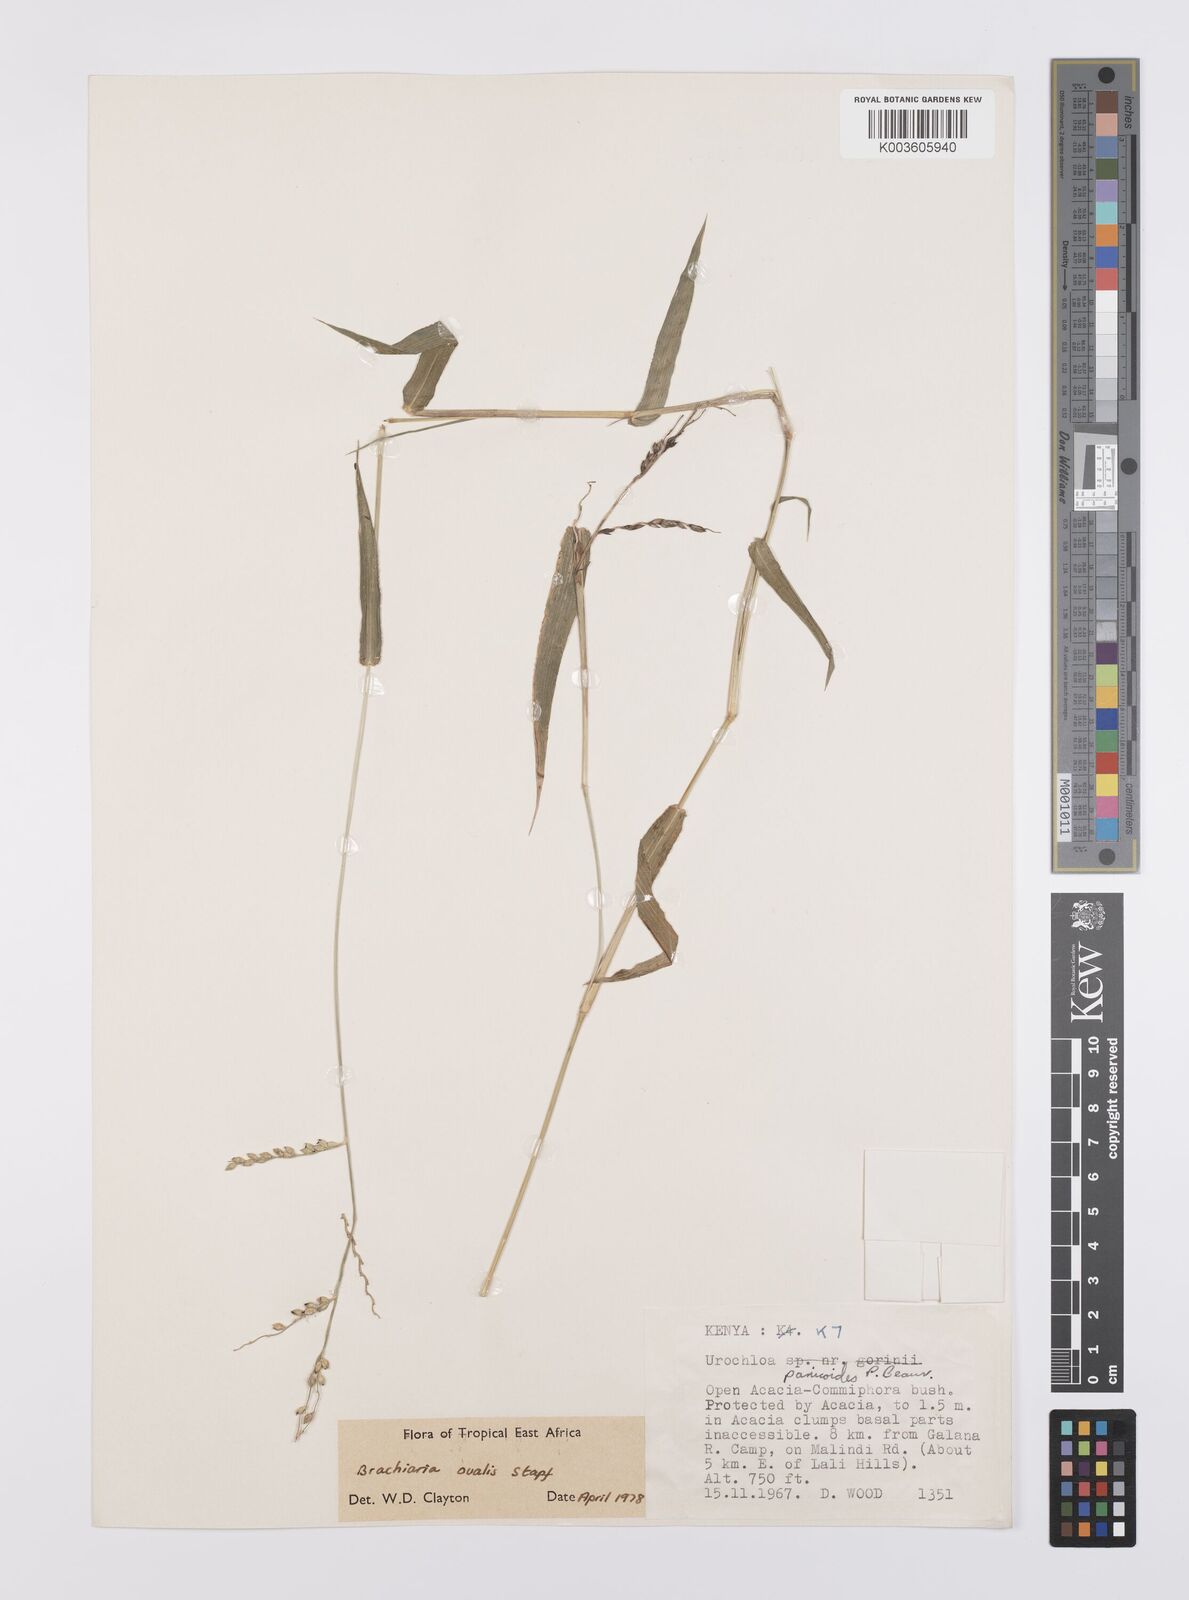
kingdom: Plantae
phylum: Tracheophyta
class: Liliopsida
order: Poales
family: Poaceae
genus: Urochloa
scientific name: Urochloa ovalis
